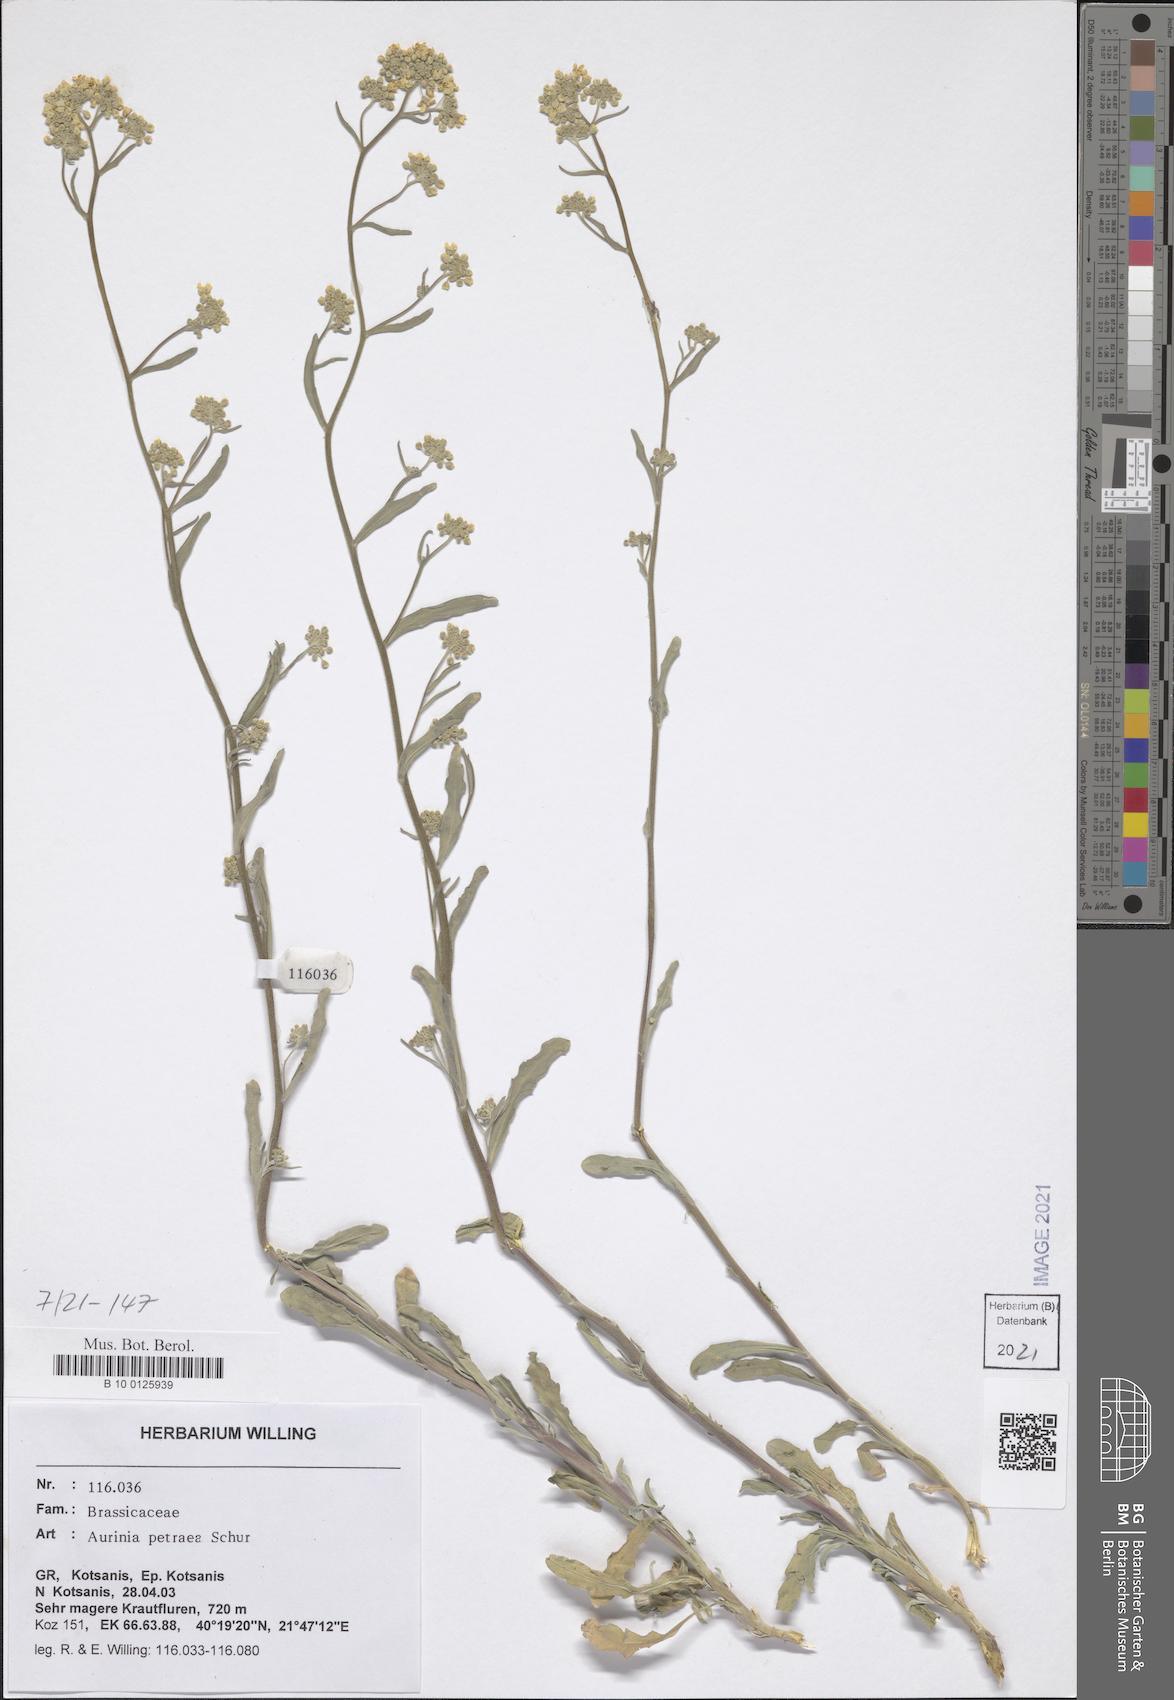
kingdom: Plantae
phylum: Tracheophyta
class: Magnoliopsida
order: Brassicales
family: Brassicaceae
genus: Aurinia
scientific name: Aurinia petraea
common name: Goldentuft
